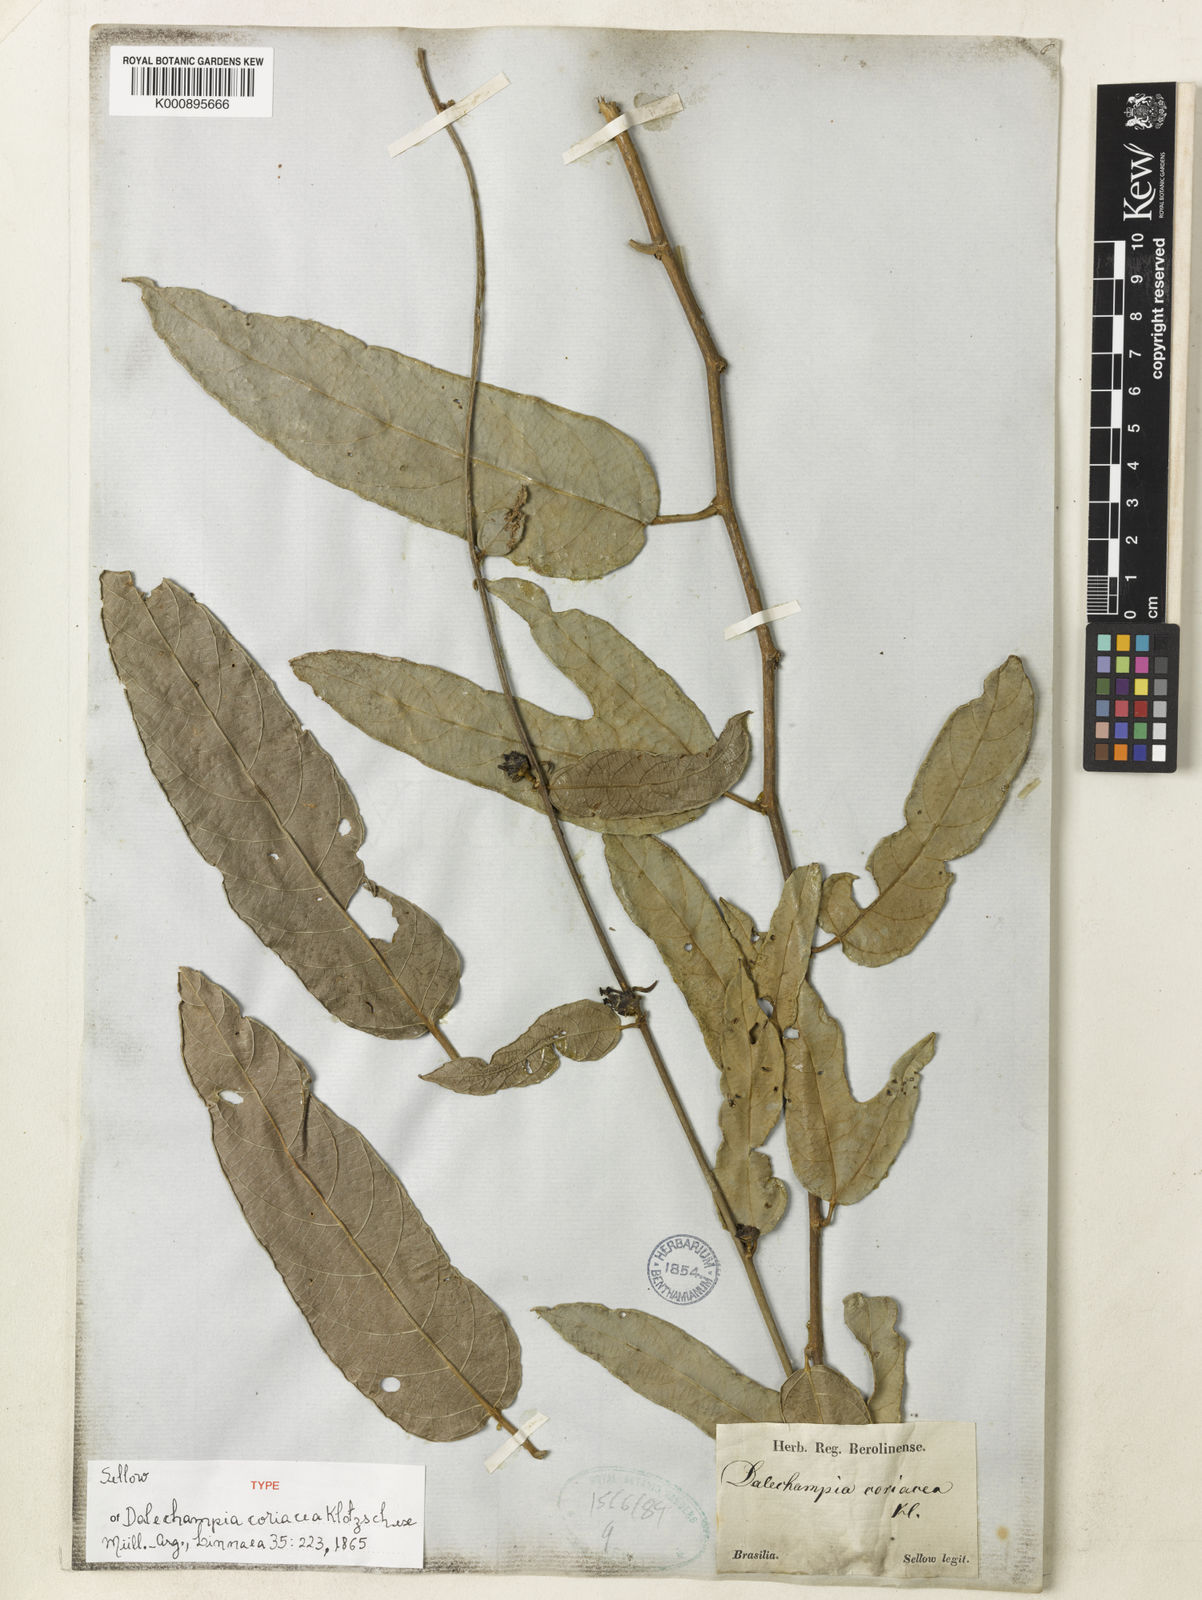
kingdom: Plantae
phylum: Tracheophyta
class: Magnoliopsida
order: Malpighiales
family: Euphorbiaceae
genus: Dalechampia
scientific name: Dalechampia
